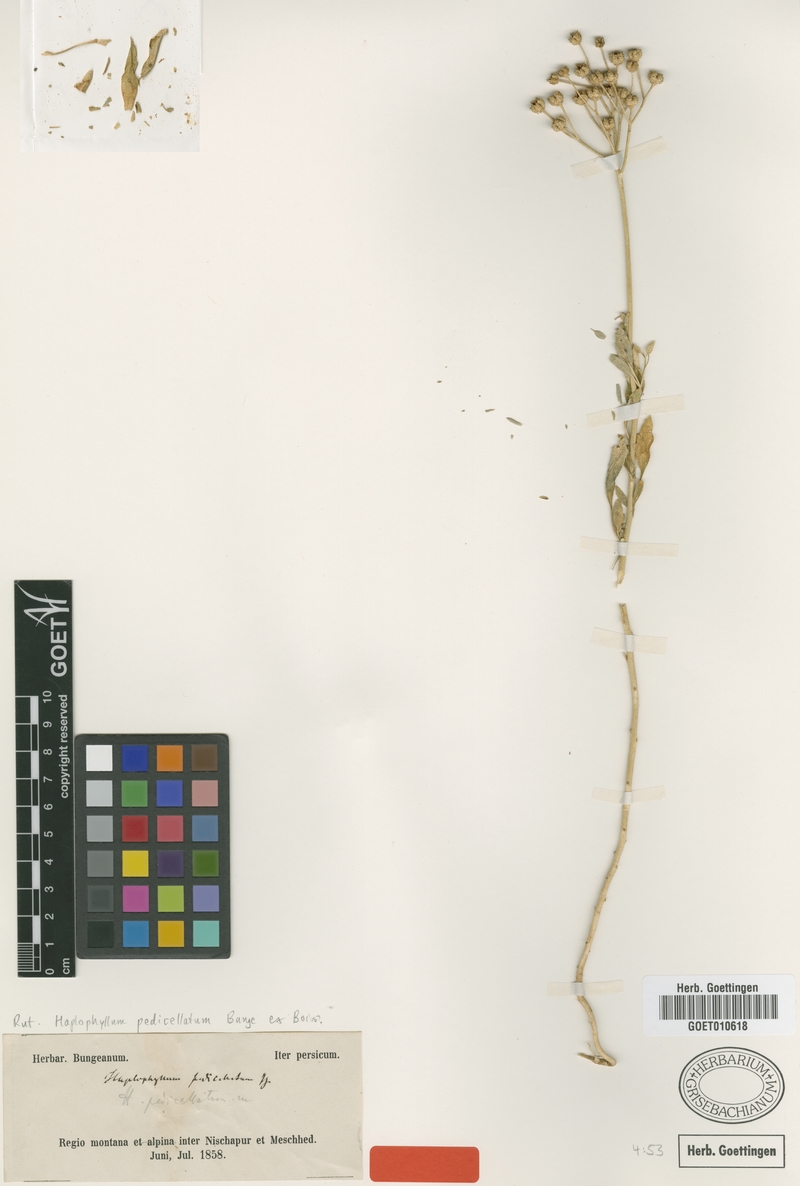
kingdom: Plantae
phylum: Tracheophyta
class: Magnoliopsida
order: Sapindales
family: Rutaceae
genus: Haplophyllum
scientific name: Haplophyllum pedicellatum
